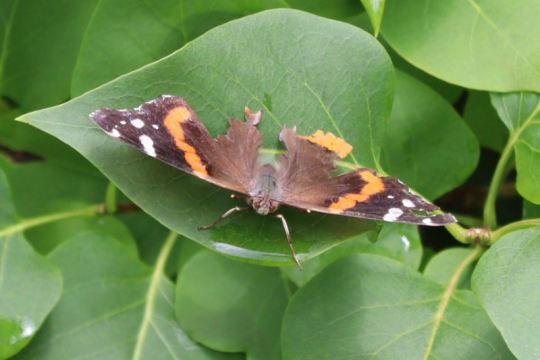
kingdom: Animalia
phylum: Arthropoda
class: Insecta
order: Lepidoptera
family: Nymphalidae
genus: Vanessa
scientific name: Vanessa atalanta
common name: Red Admiral
